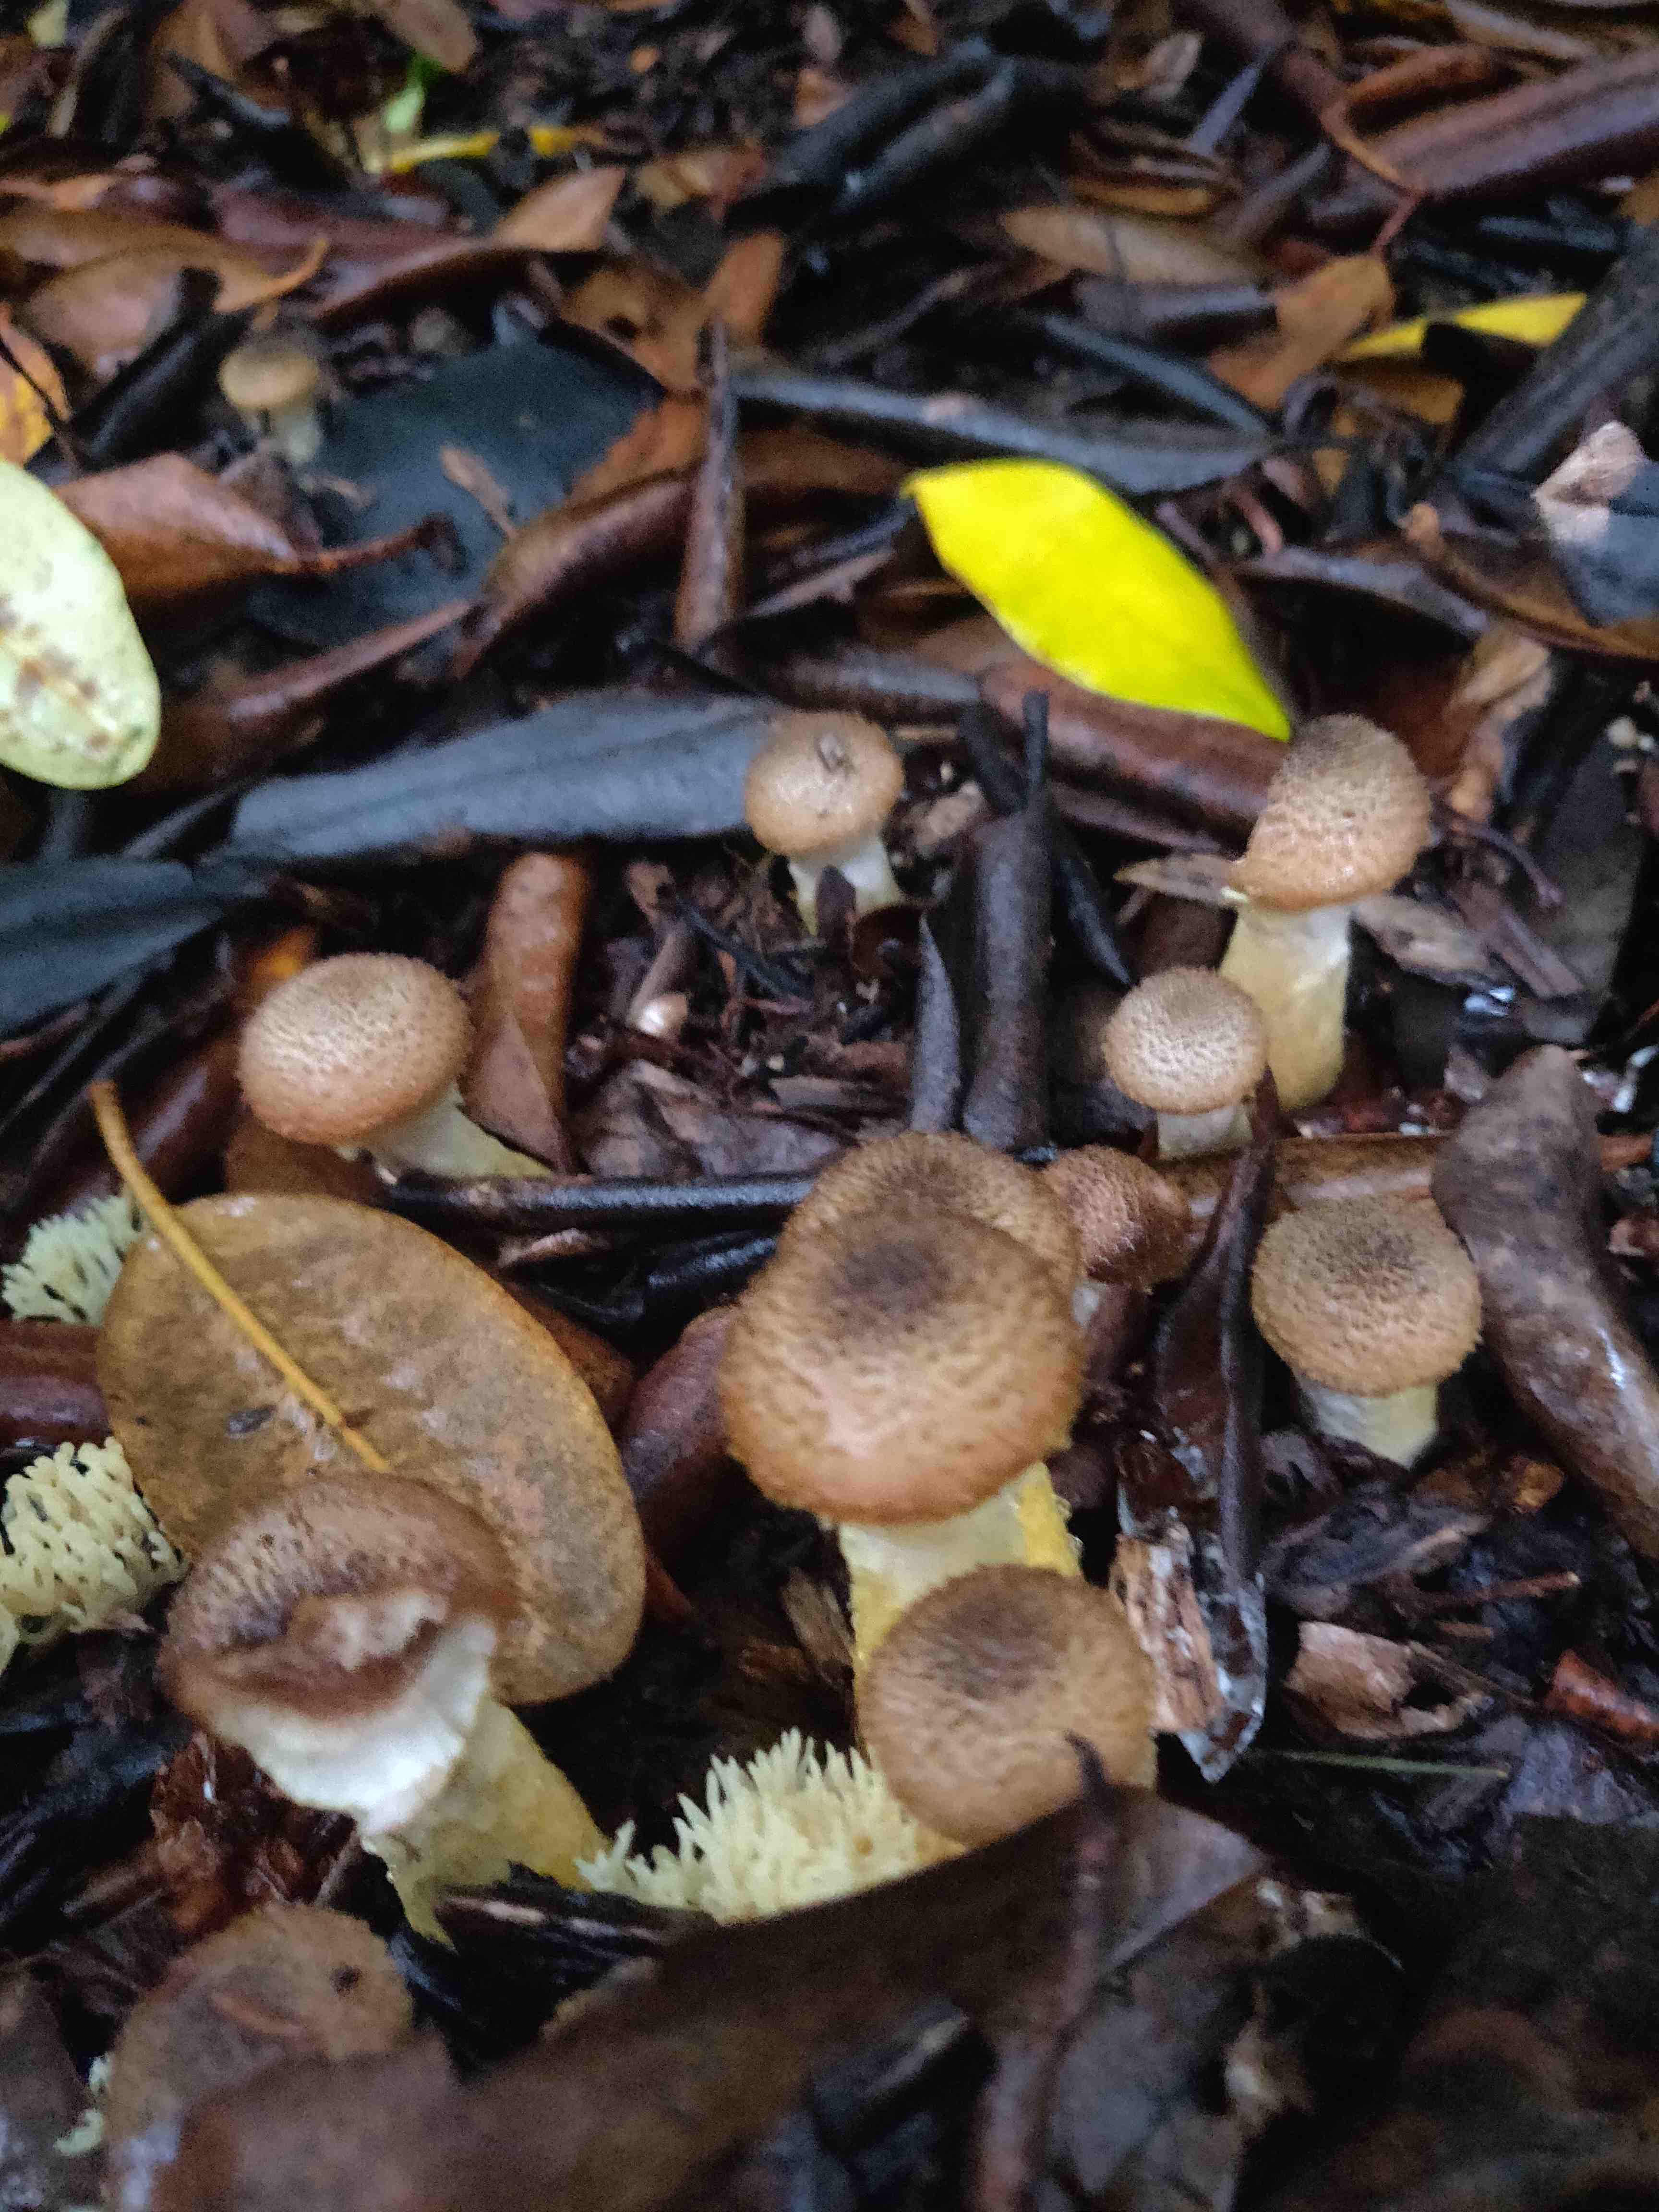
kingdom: Fungi
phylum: Basidiomycota
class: Agaricomycetes
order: Agaricales
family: Physalacriaceae
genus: Armillaria
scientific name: Armillaria lutea
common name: køllestokket honningsvamp
